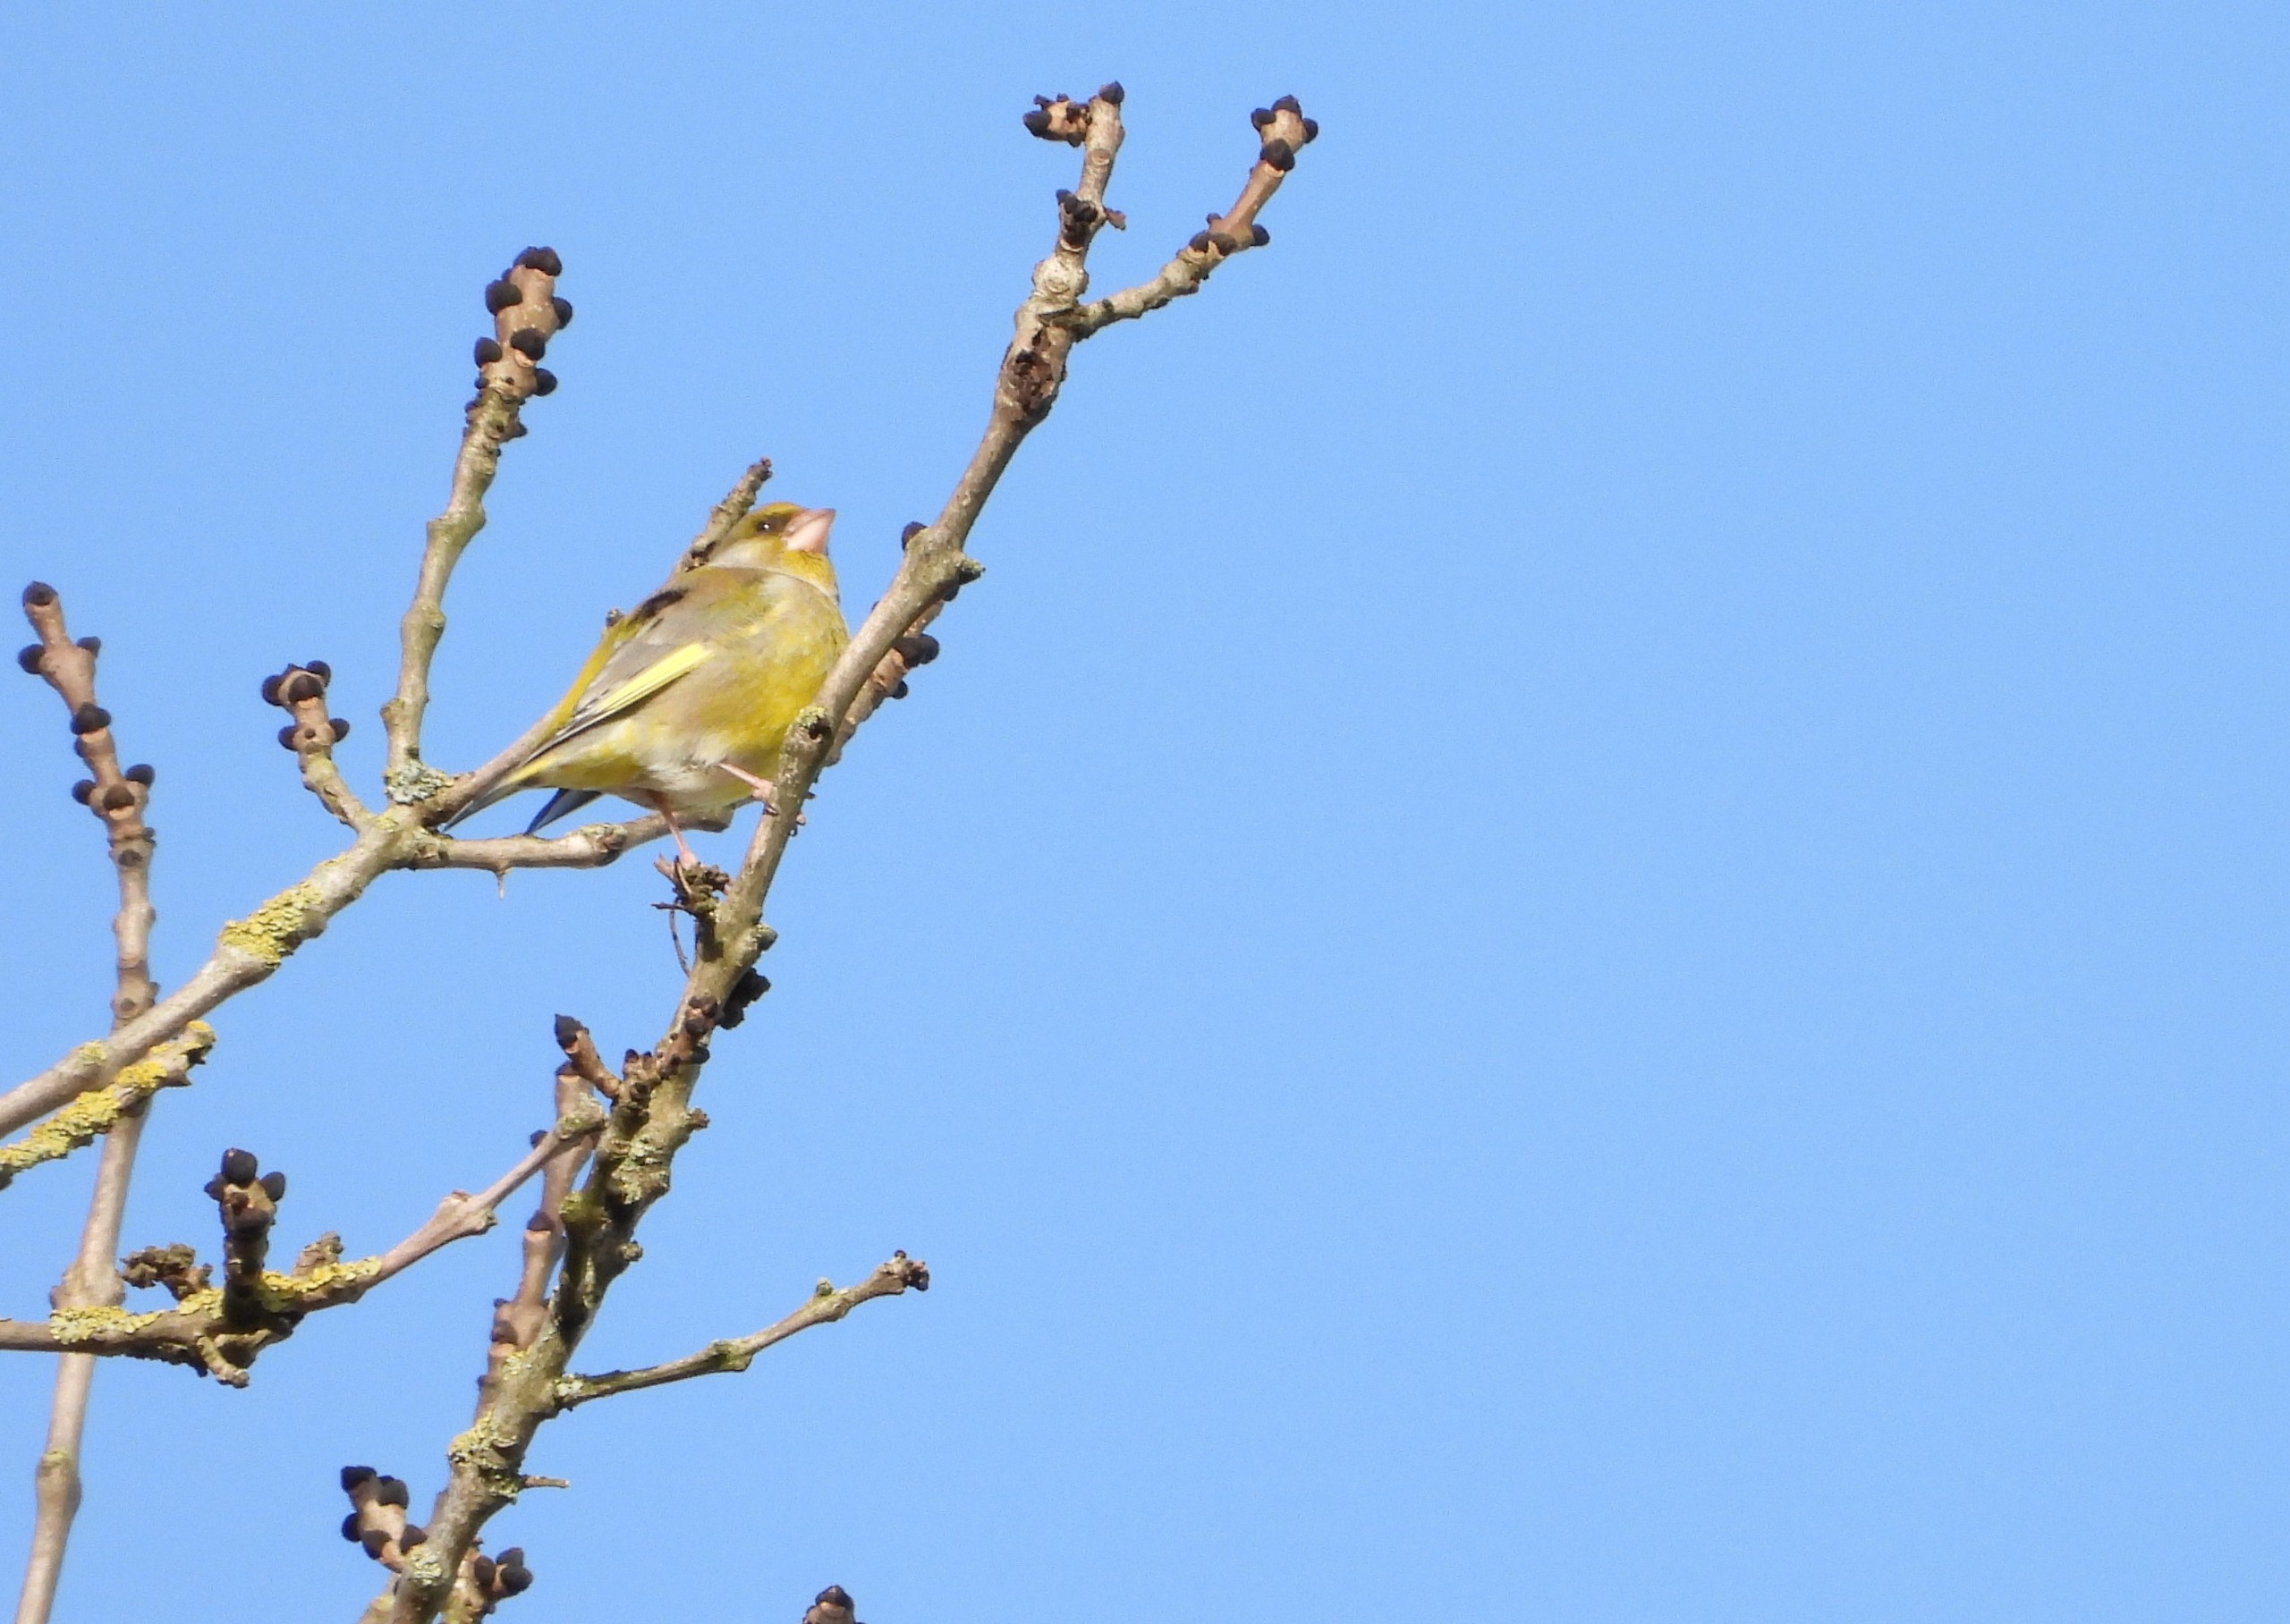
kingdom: Plantae
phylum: Tracheophyta
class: Liliopsida
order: Poales
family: Poaceae
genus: Chloris
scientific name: Chloris chloris
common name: Grønirisk
